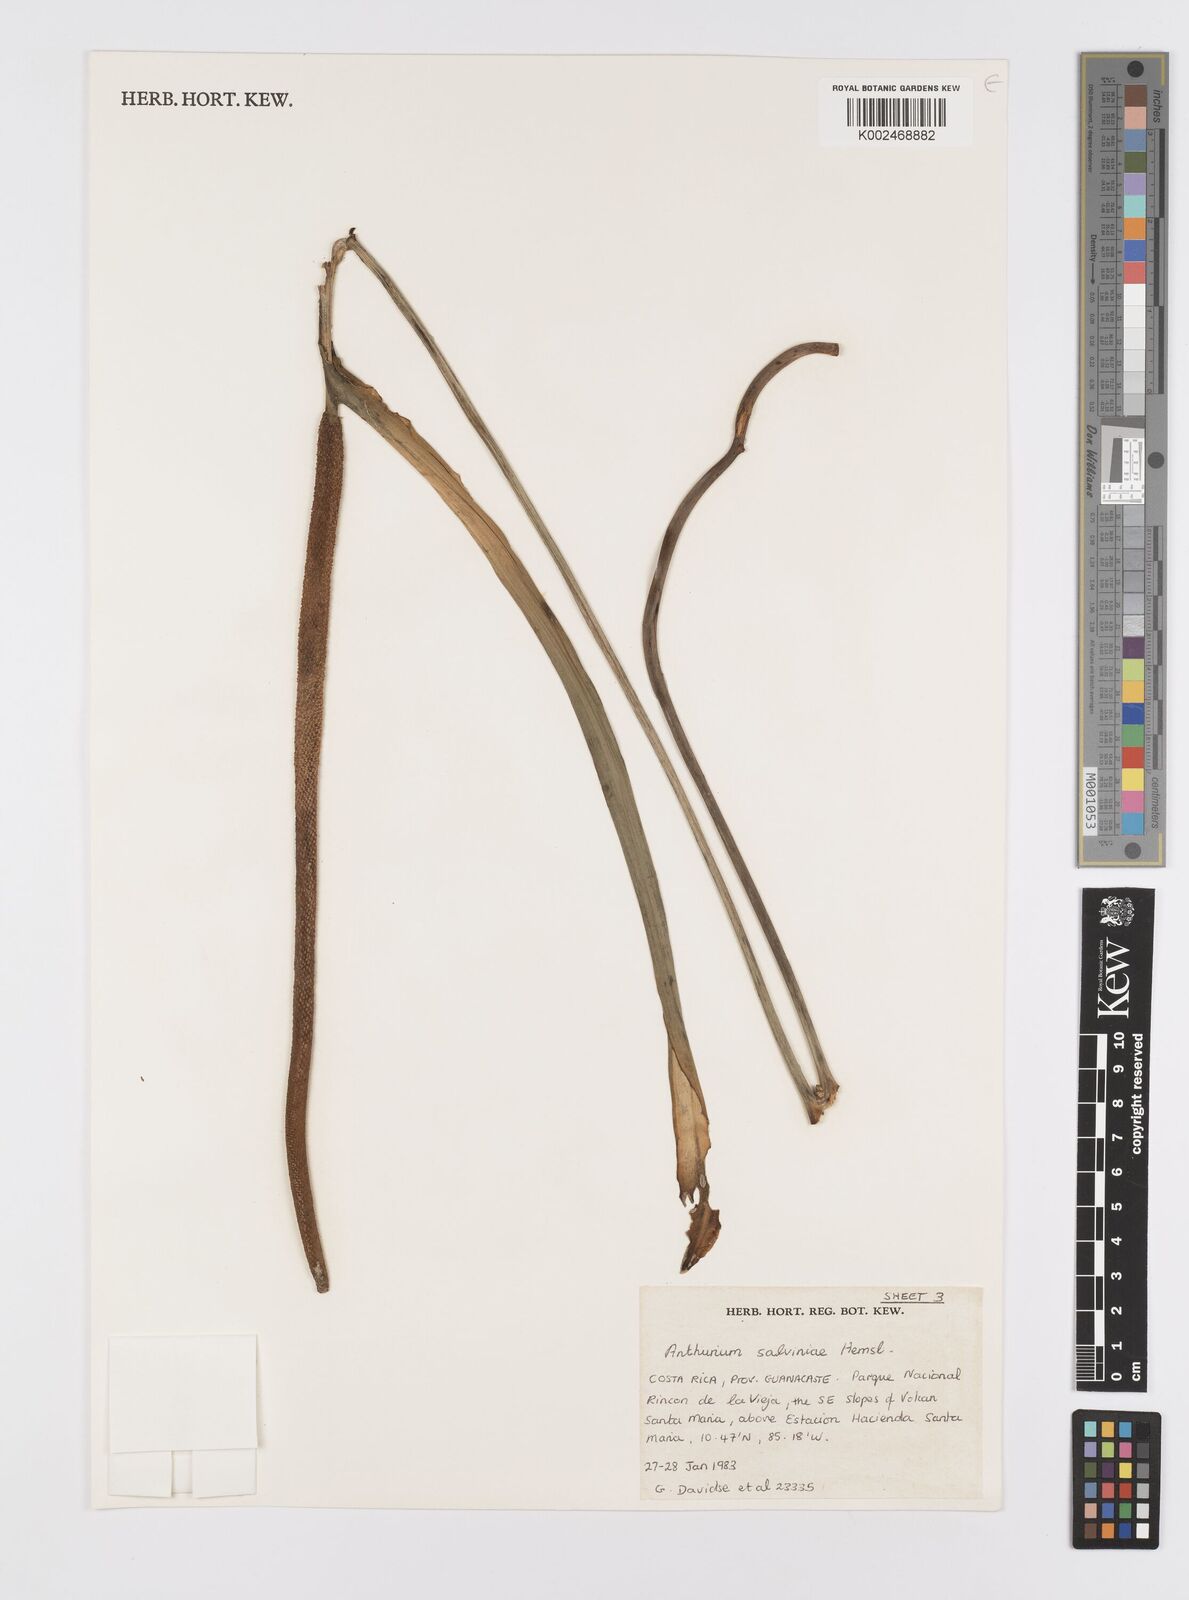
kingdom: Plantae
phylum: Tracheophyta
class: Liliopsida
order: Alismatales
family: Araceae
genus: Anthurium
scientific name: Anthurium salvinii
